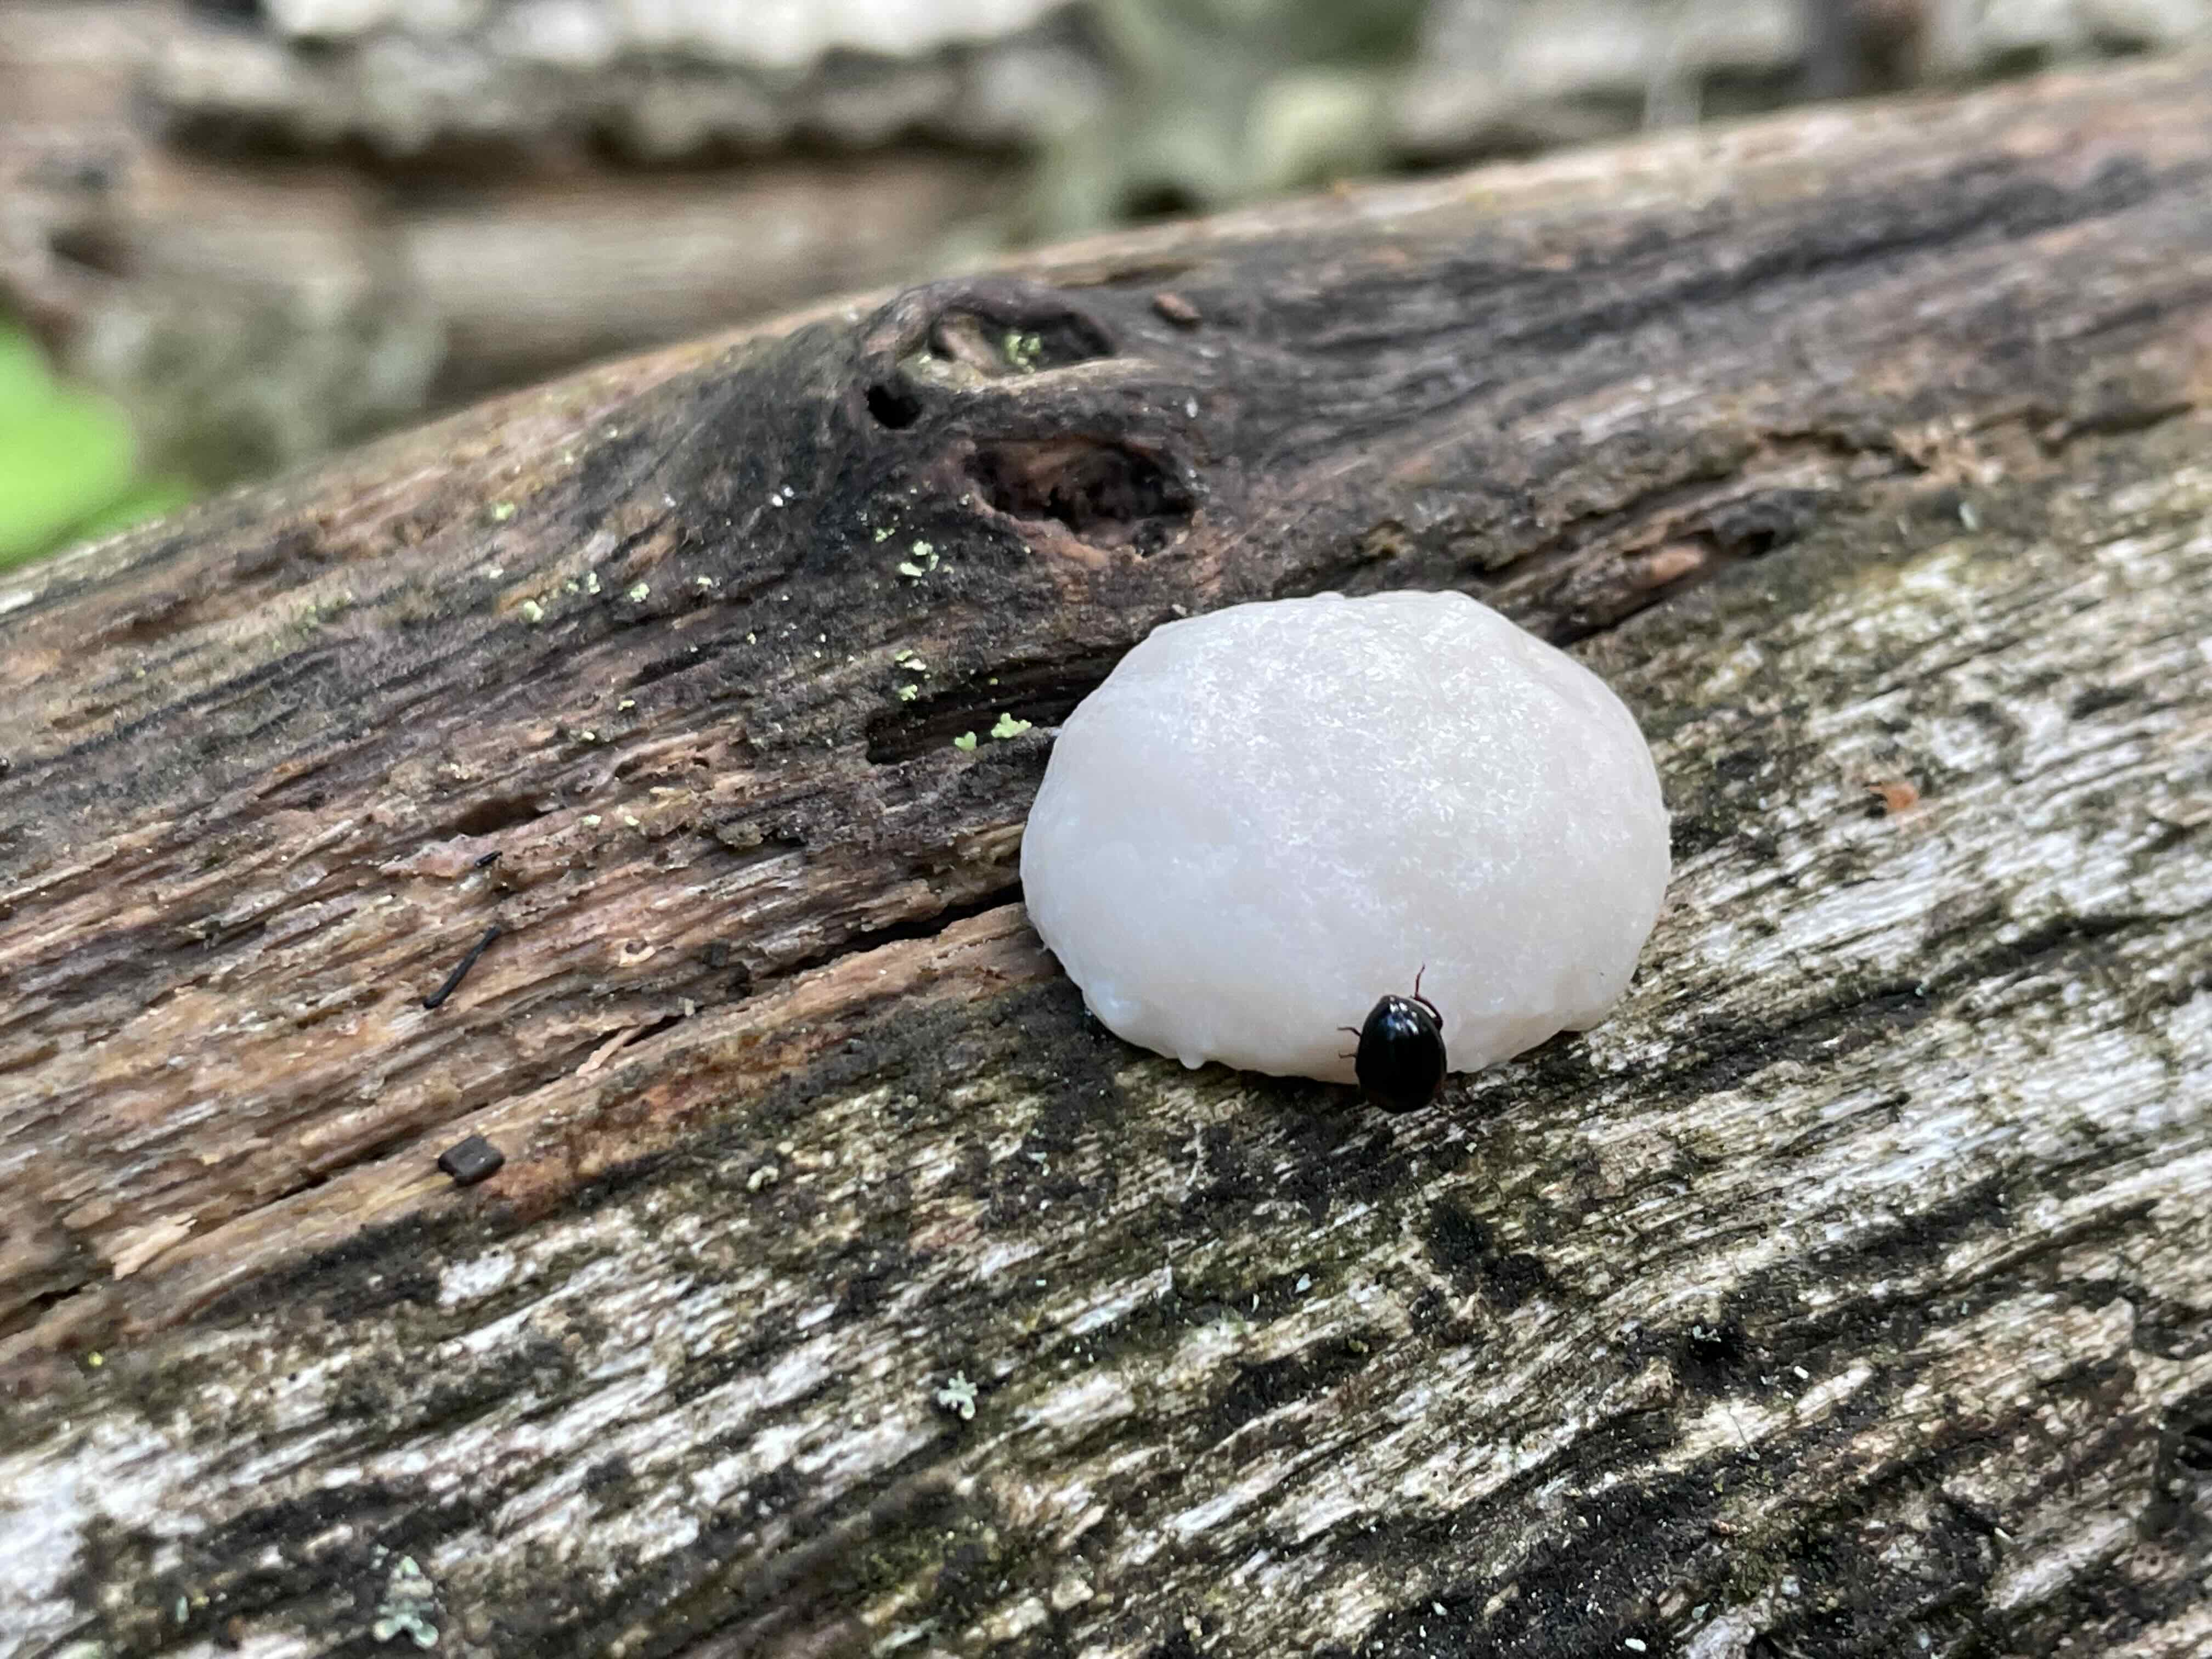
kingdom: Protozoa
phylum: Mycetozoa
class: Myxomycetes
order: Cribrariales
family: Tubiferaceae
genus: Reticularia
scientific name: Reticularia lycoperdon
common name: skinnende støvpude
